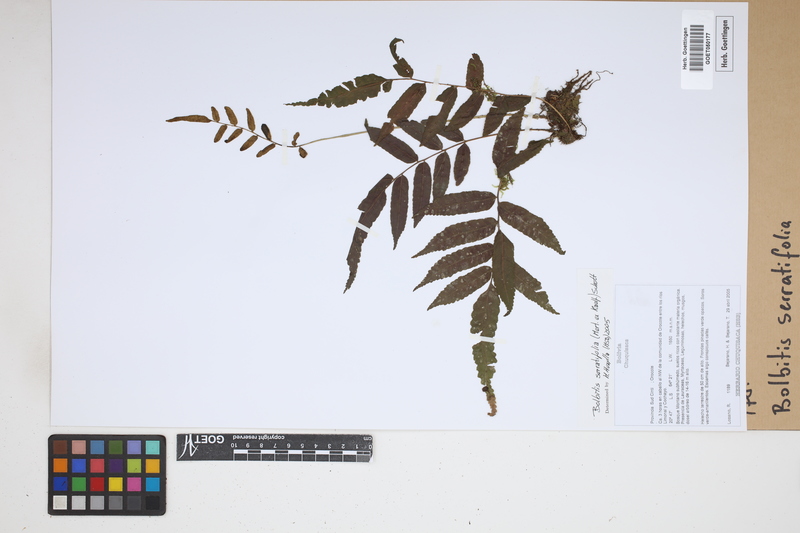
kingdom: Plantae
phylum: Tracheophyta
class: Polypodiopsida
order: Polypodiales
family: Dryopteridaceae
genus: Bolbitis
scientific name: Bolbitis serratifolia
